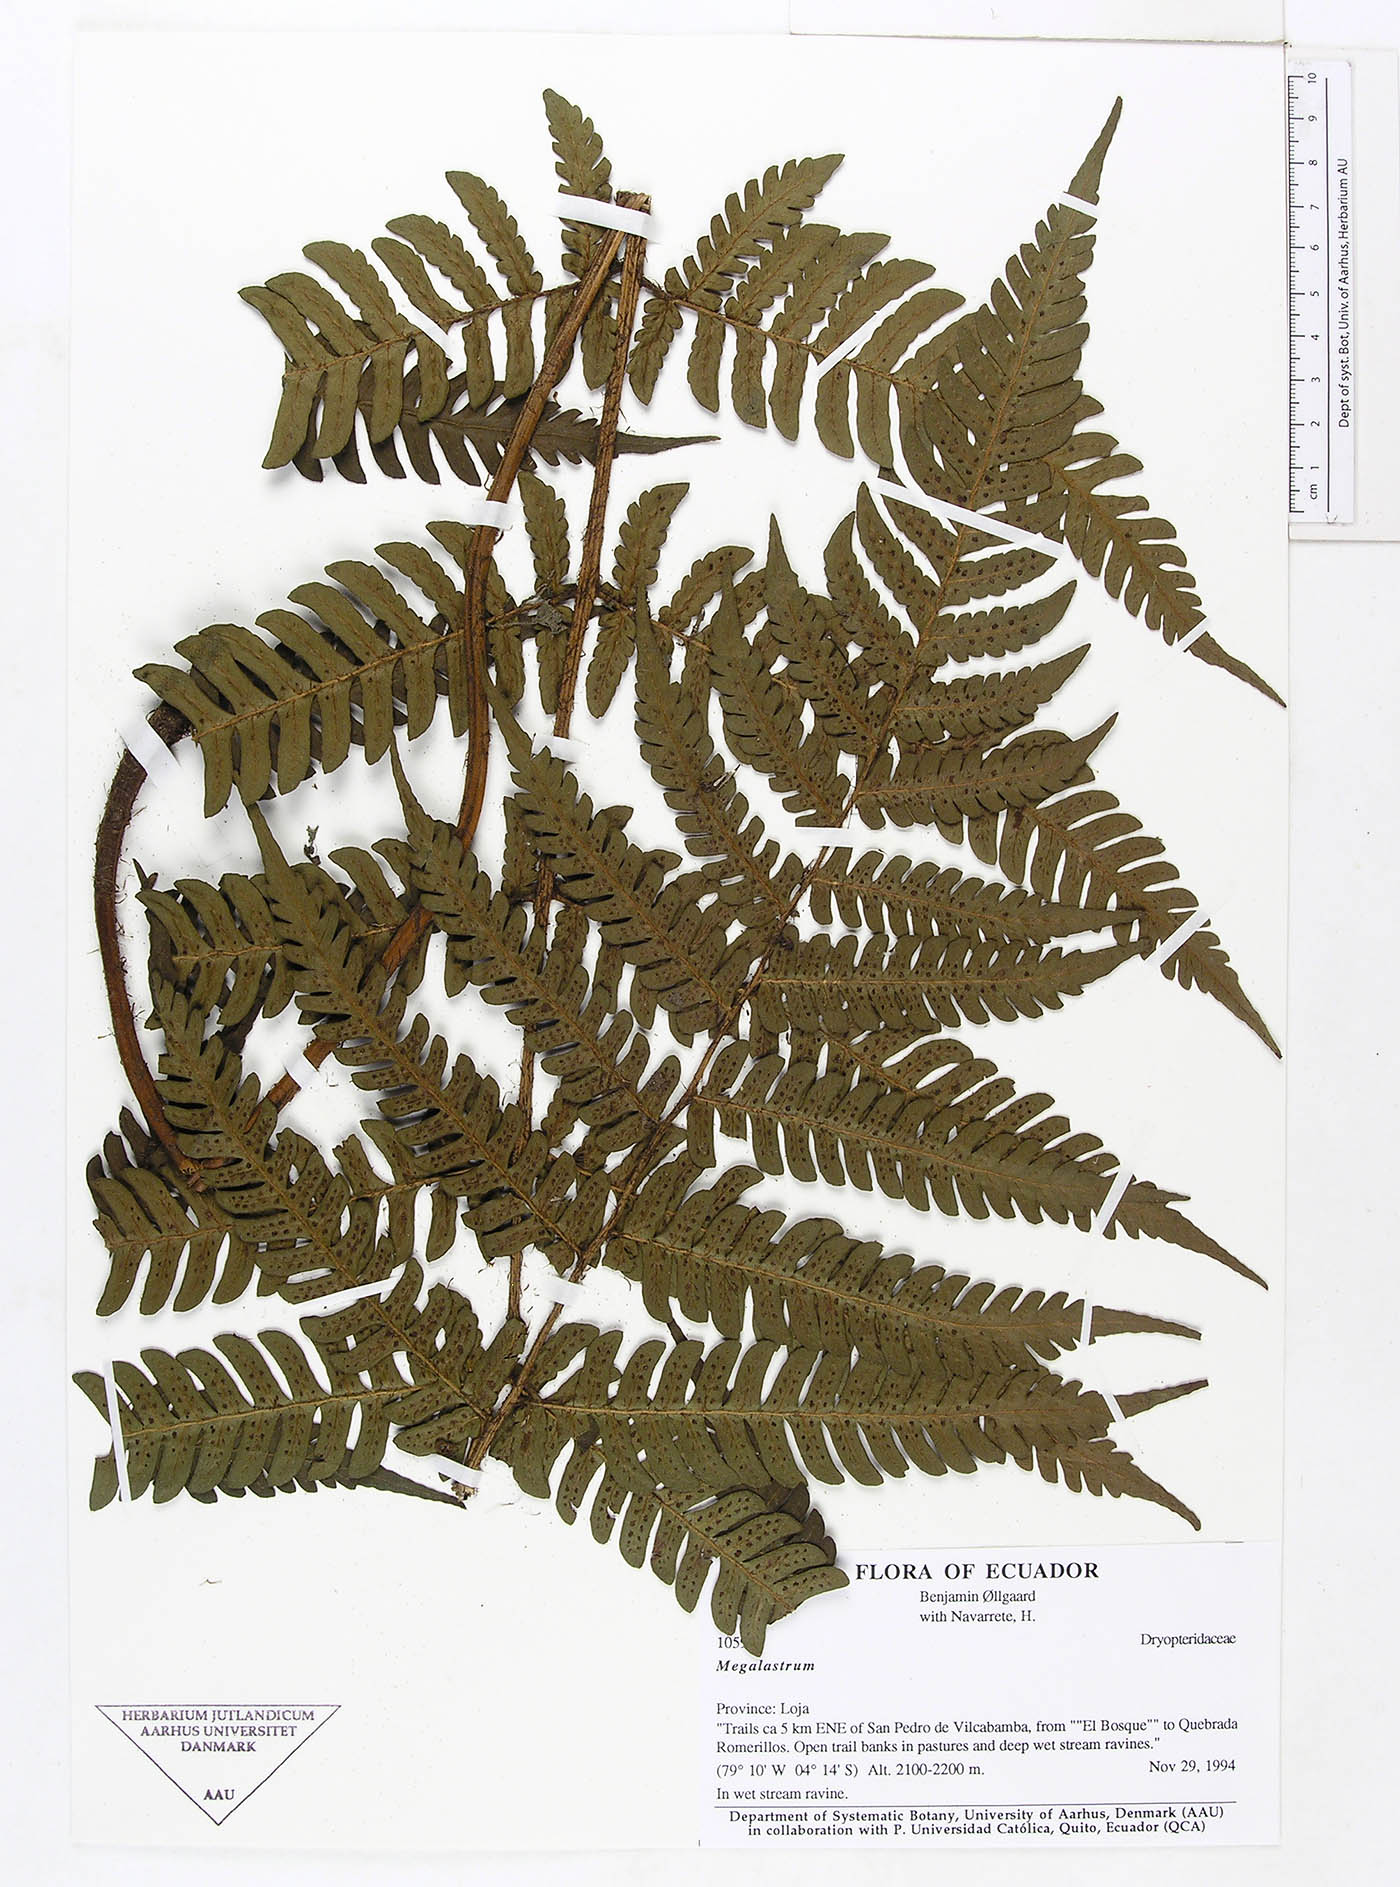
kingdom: Plantae
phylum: Tracheophyta
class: Polypodiopsida
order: Polypodiales
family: Dryopteridaceae
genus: Megalastrum
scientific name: Megalastrum biseriale
